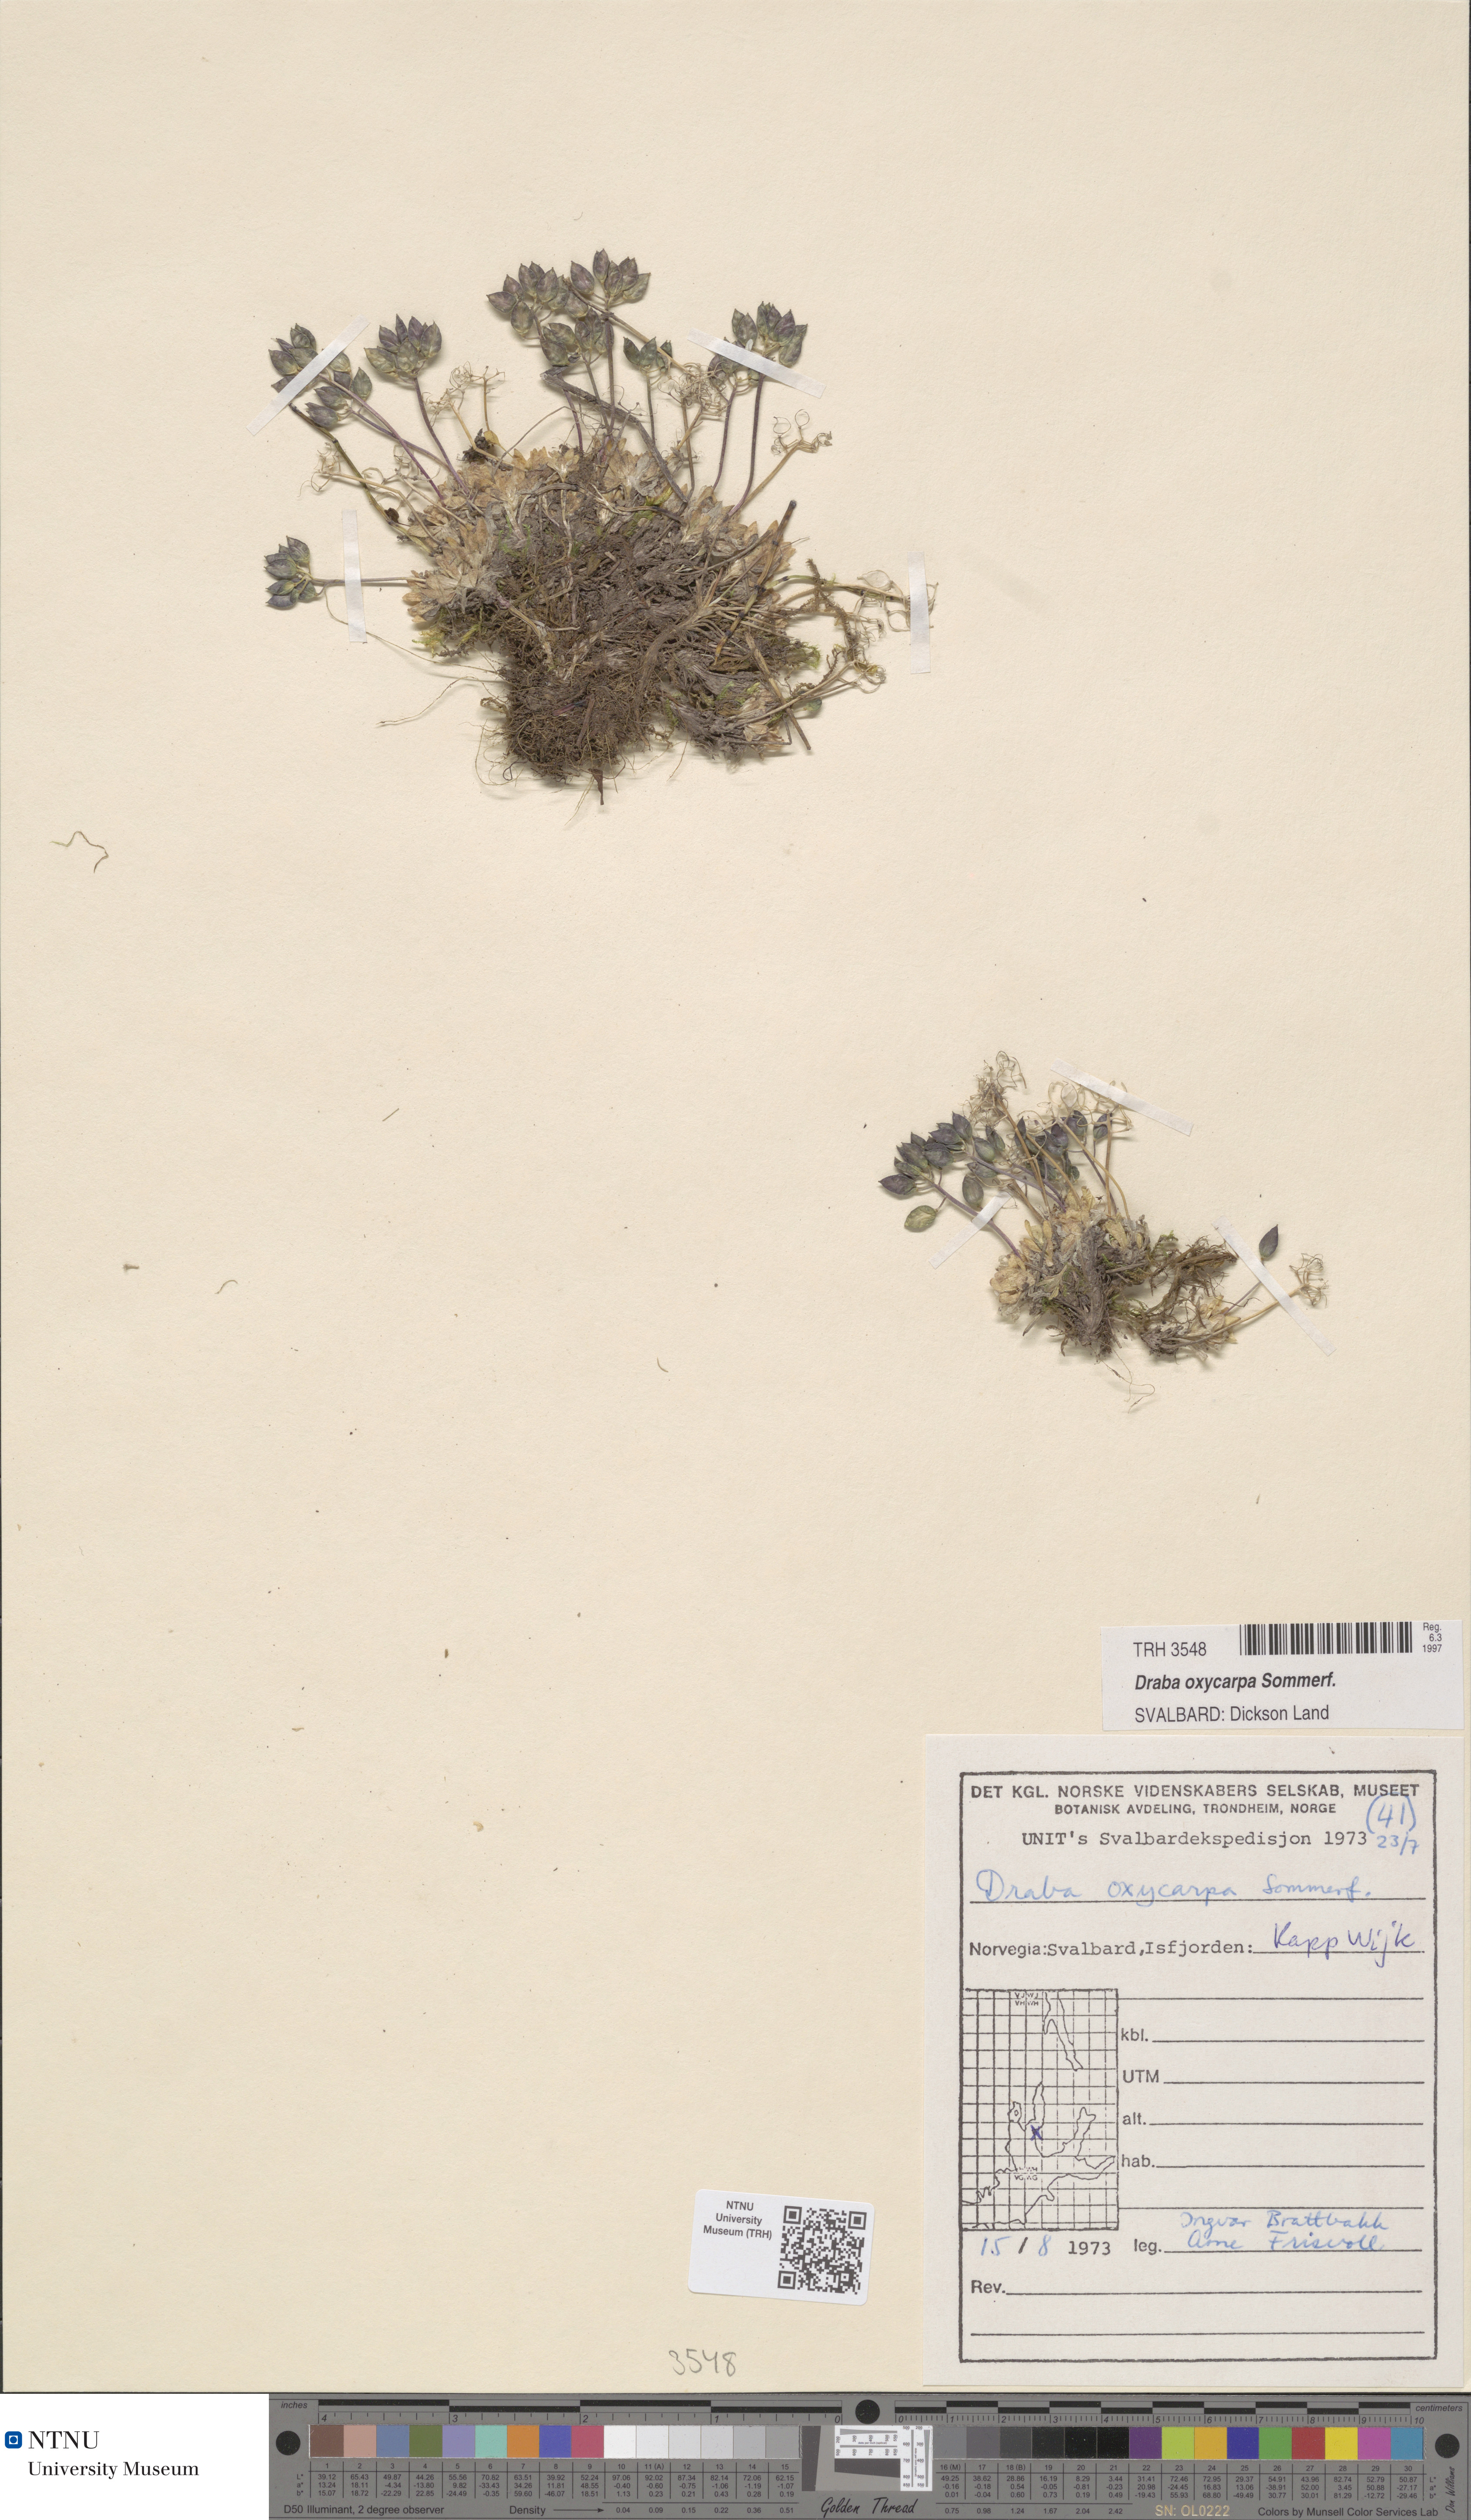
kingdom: Plantae
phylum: Tracheophyta
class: Magnoliopsida
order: Brassicales
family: Brassicaceae
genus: Draba
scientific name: Draba oxycarpa
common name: Sharp-fruited whitlow-grass
